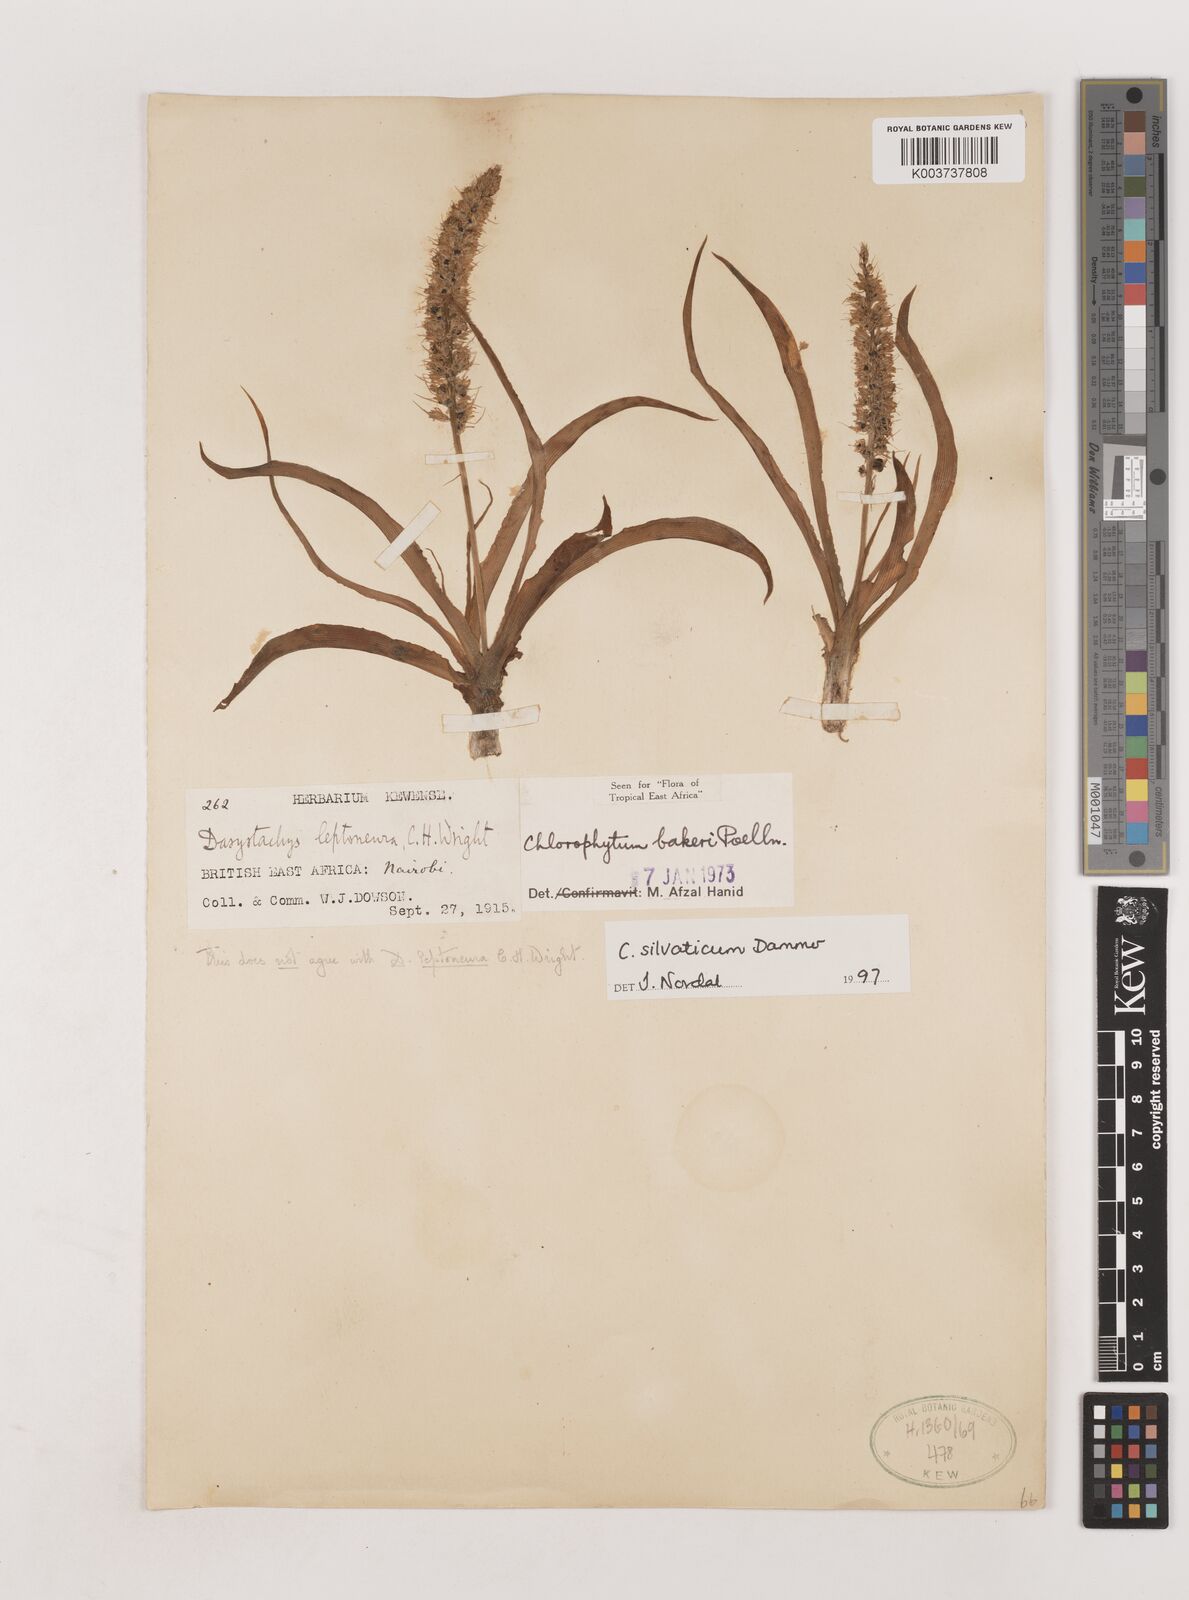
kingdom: Plantae
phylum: Tracheophyta
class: Liliopsida
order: Asparagales
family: Asparagaceae
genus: Chlorophytum
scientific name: Chlorophytum africanum
